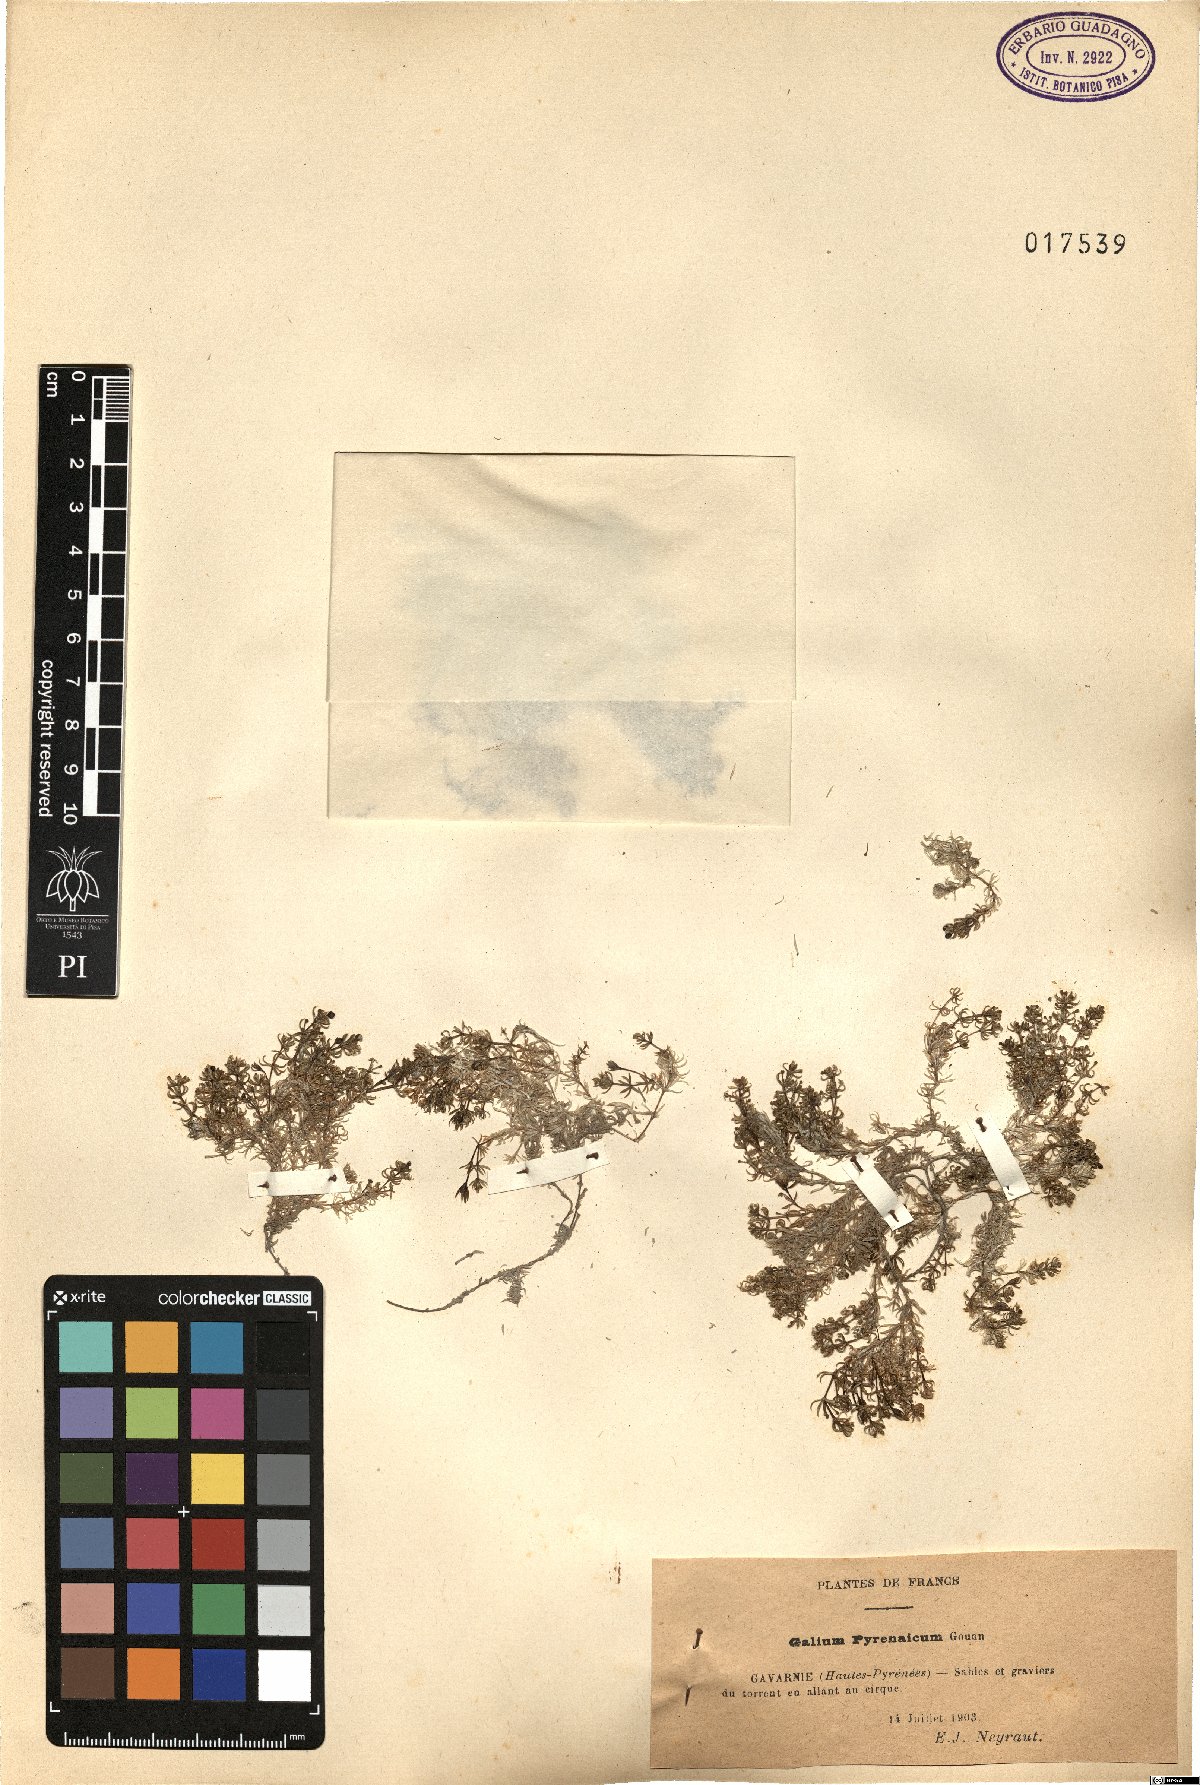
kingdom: Plantae
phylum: Tracheophyta
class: Magnoliopsida
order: Gentianales
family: Rubiaceae
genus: Galium
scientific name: Galium pyrenaicum
